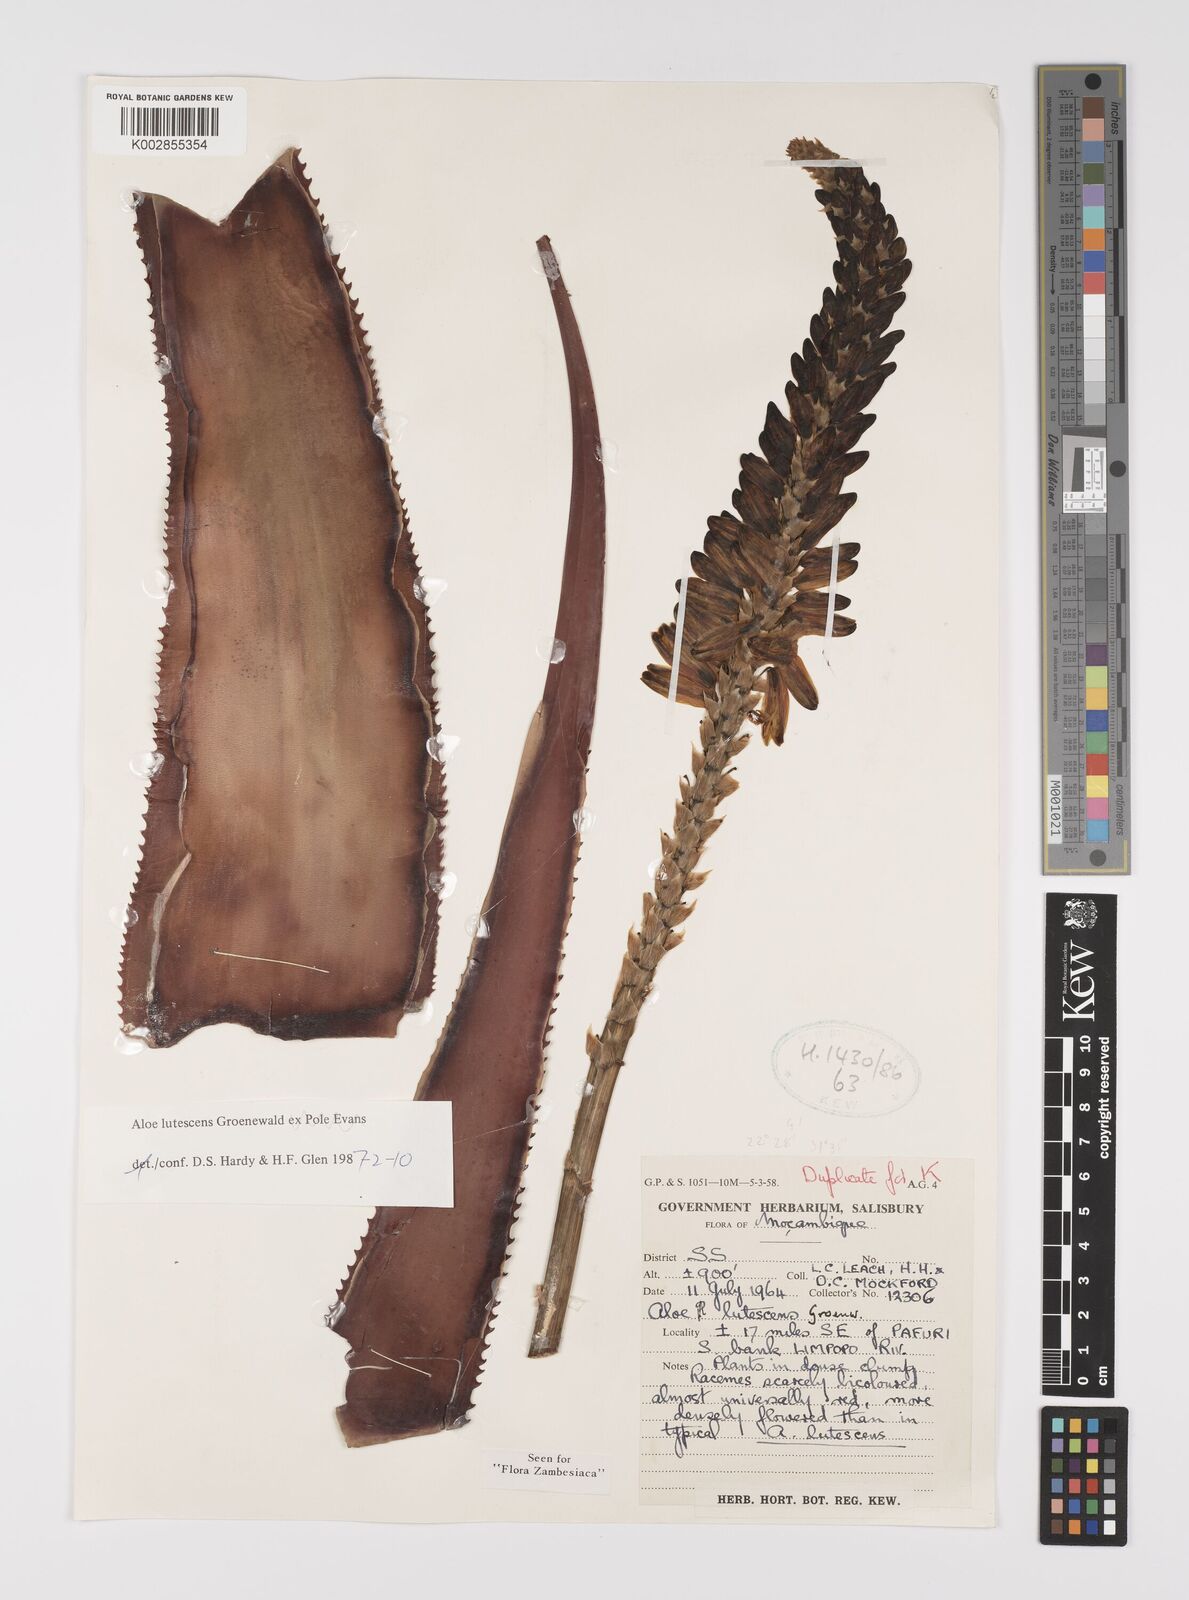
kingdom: Plantae
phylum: Tracheophyta
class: Liliopsida
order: Asparagales
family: Asphodelaceae
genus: Aloe
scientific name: Aloe lutescens
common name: Malapati aloe
